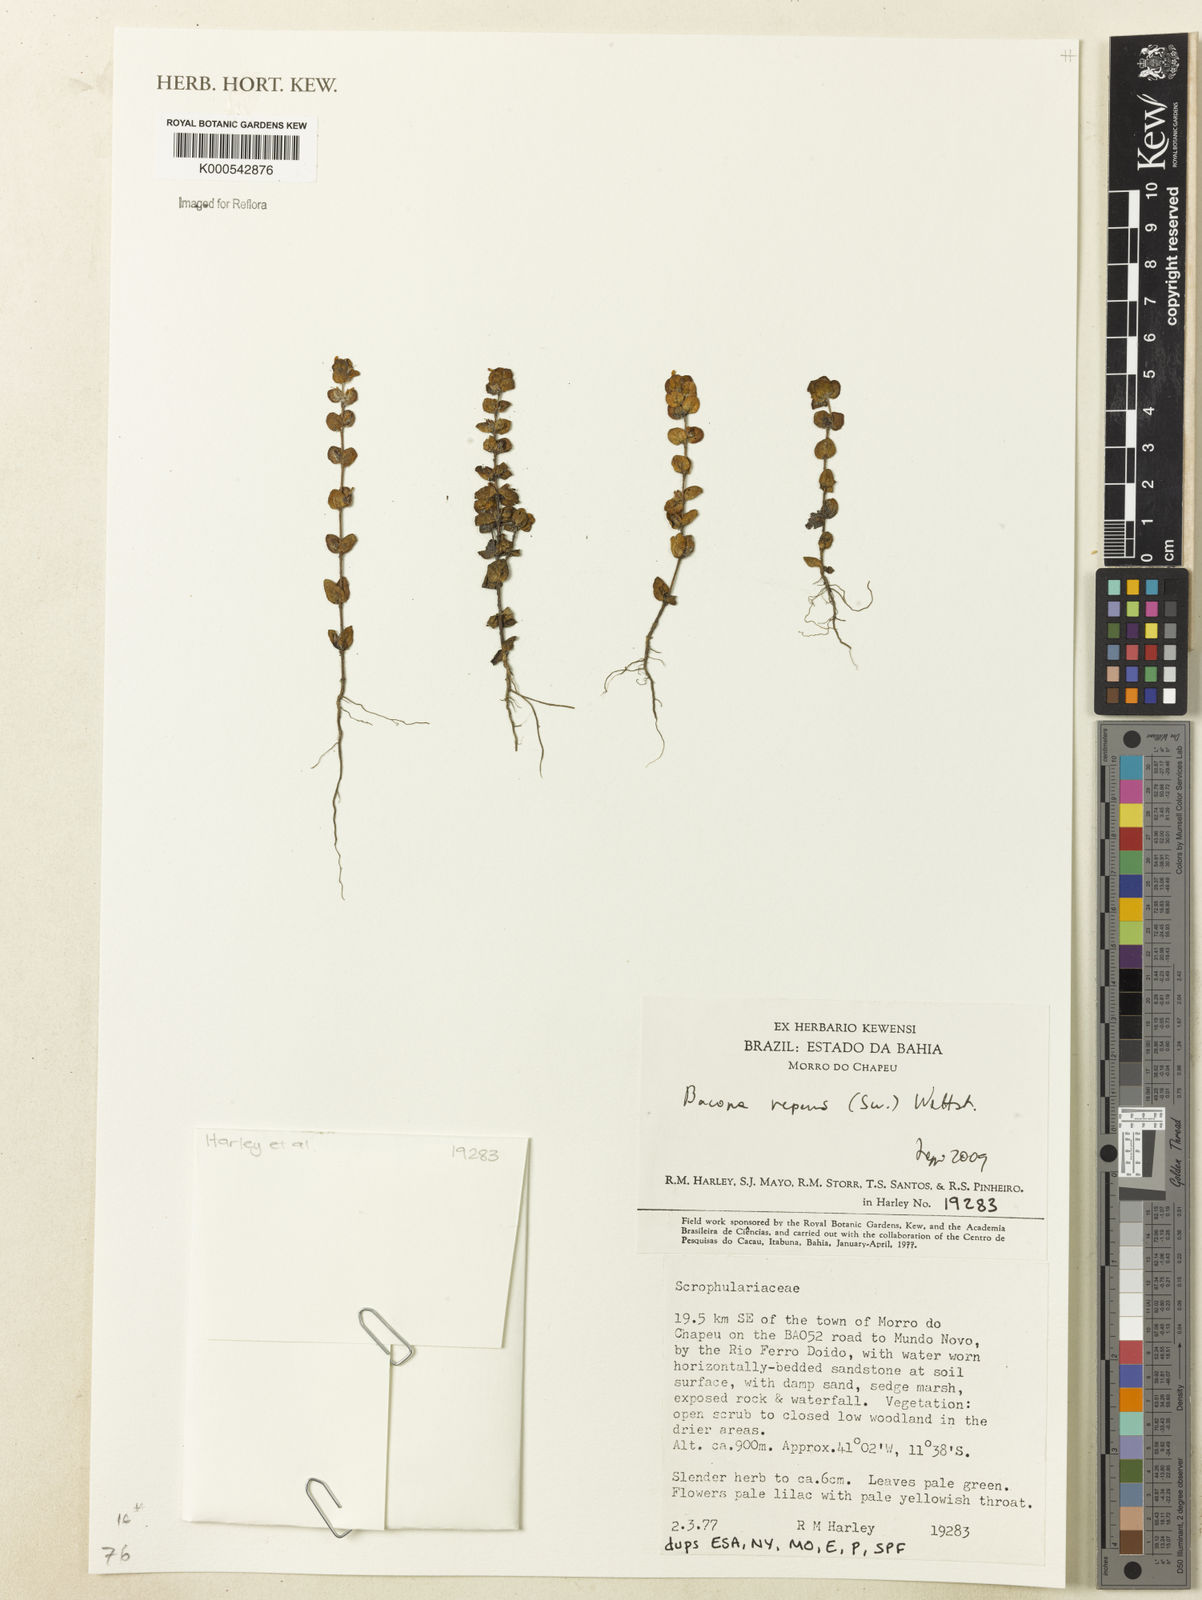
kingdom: Plantae
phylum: Tracheophyta
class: Magnoliopsida
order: Lamiales
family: Plantaginaceae
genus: Bacopa
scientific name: Bacopa repens
